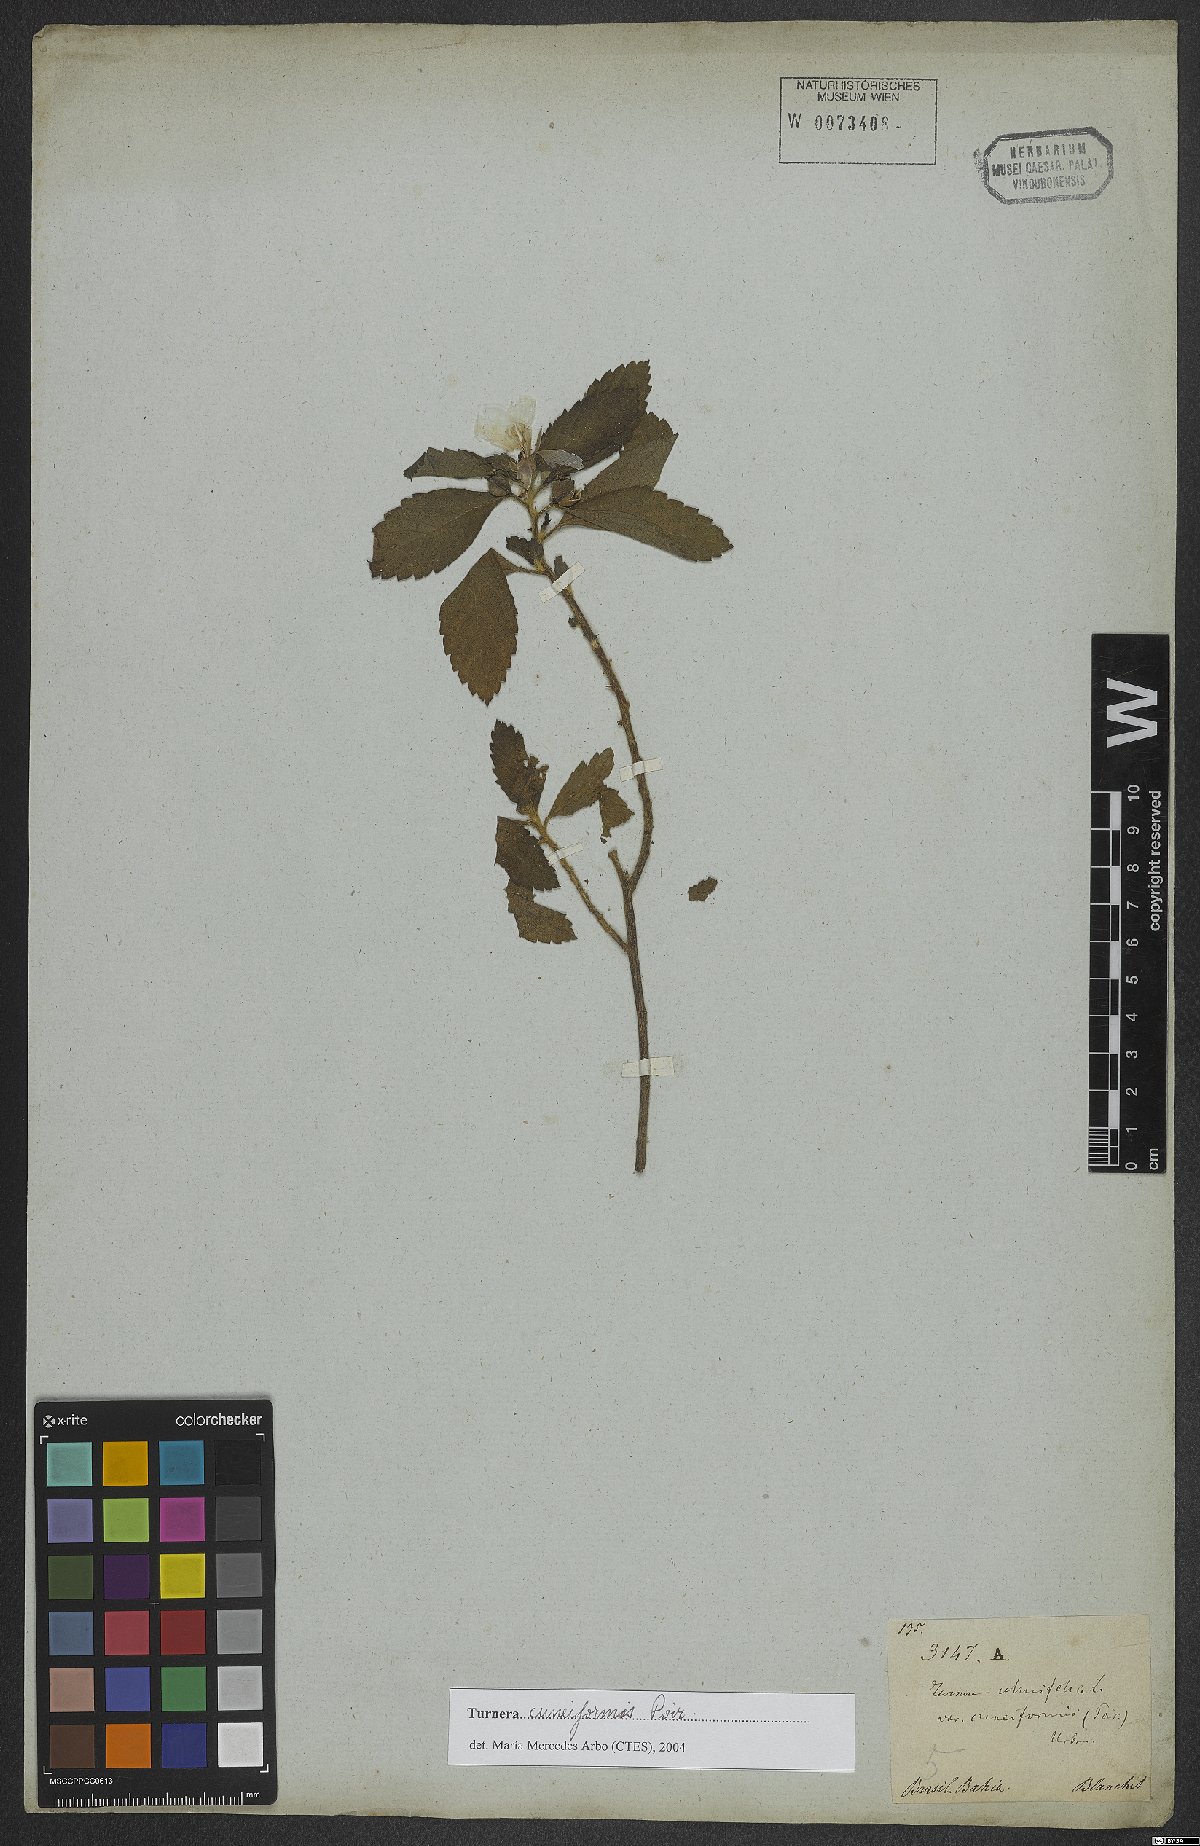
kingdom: Plantae
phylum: Tracheophyta
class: Magnoliopsida
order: Malpighiales
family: Turneraceae
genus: Turnera
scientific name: Turnera cuneiformis
